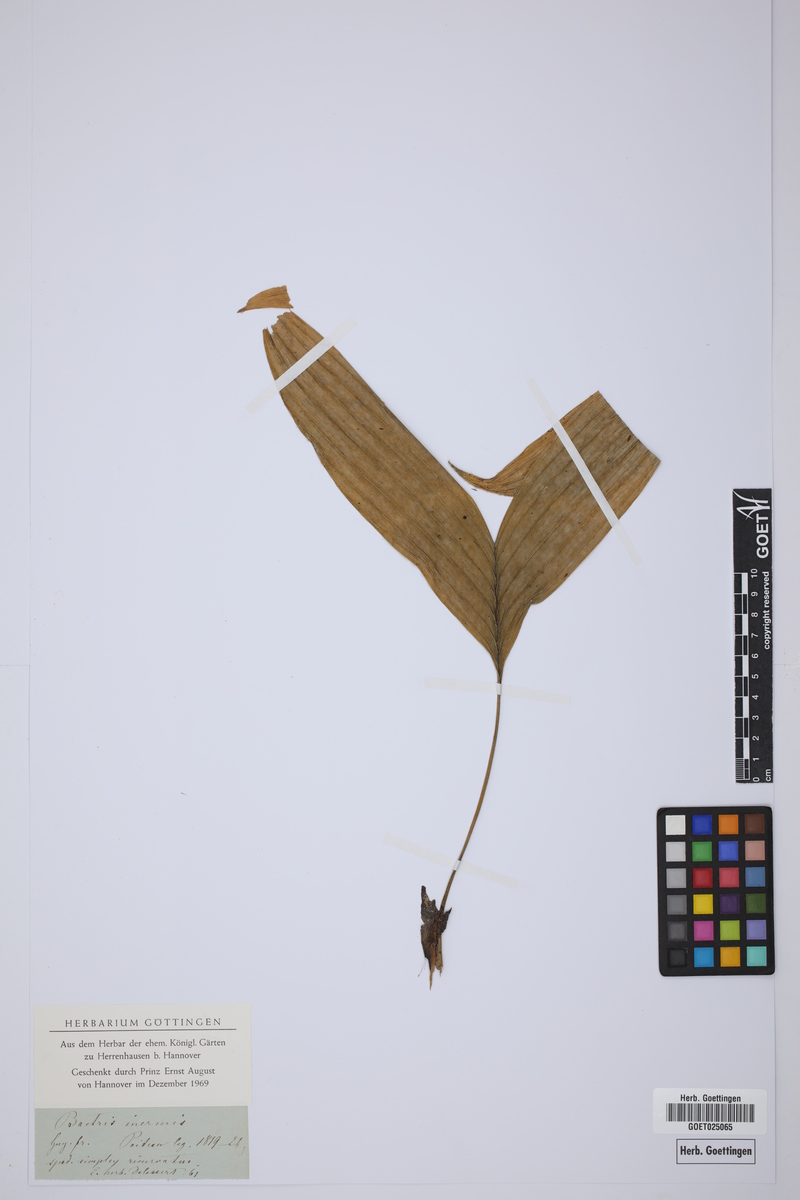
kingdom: Plantae
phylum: Tracheophyta
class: Liliopsida
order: Arecales
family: Arecaceae
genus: Bactris
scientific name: Bactris simplicifrons
